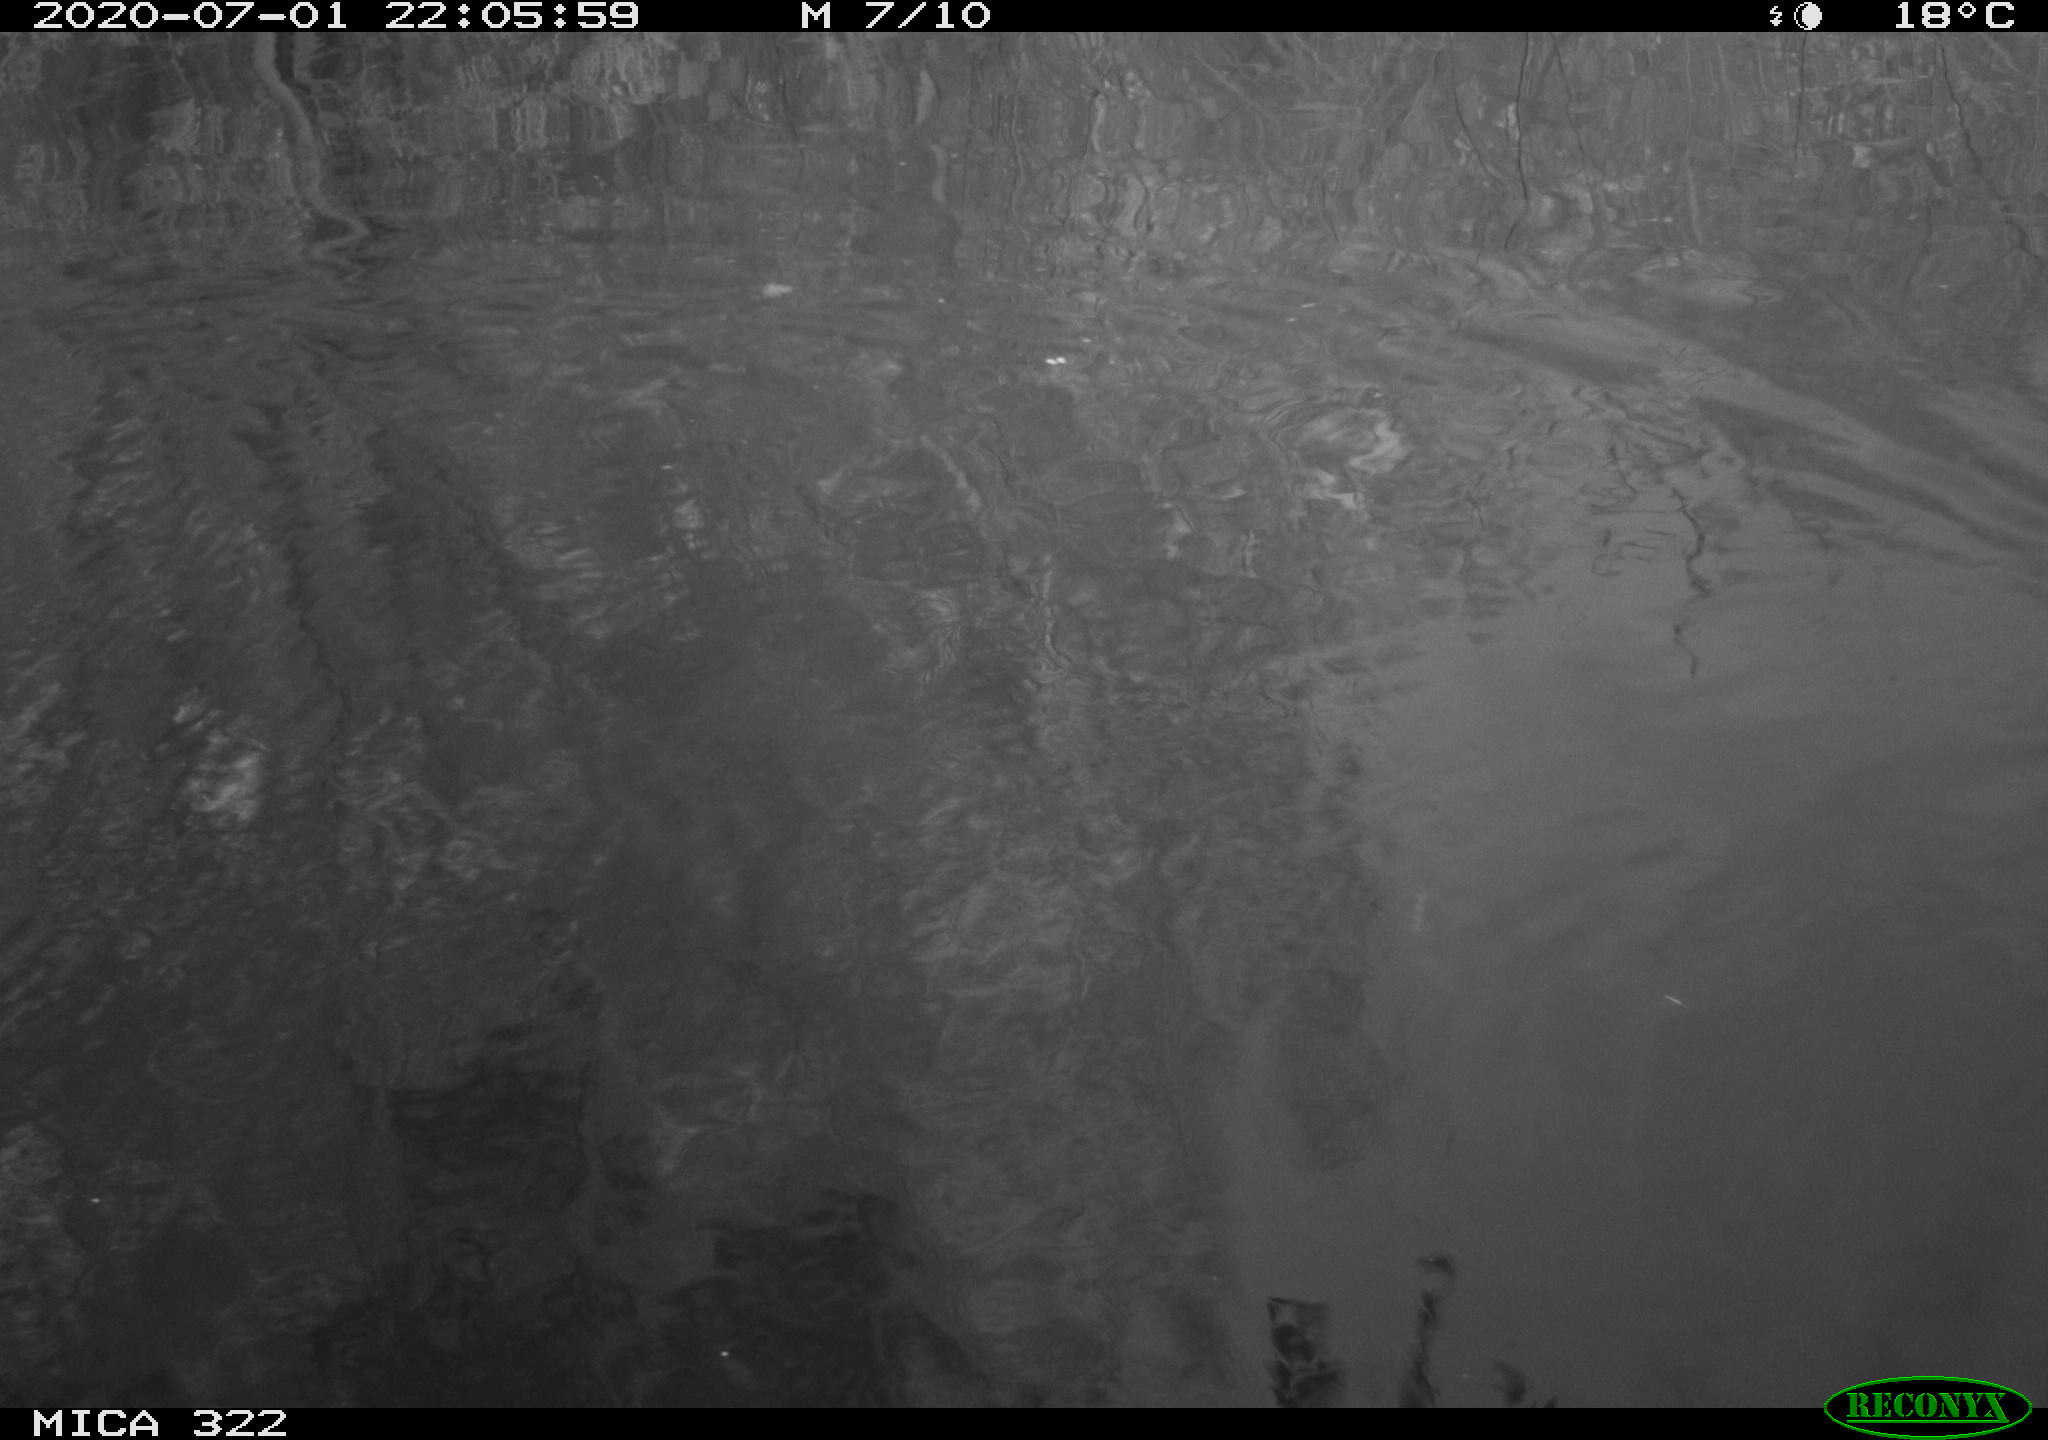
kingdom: Animalia
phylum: Chordata
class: Aves
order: Gruiformes
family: Rallidae
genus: Gallinula
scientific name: Gallinula chloropus
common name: Common moorhen
